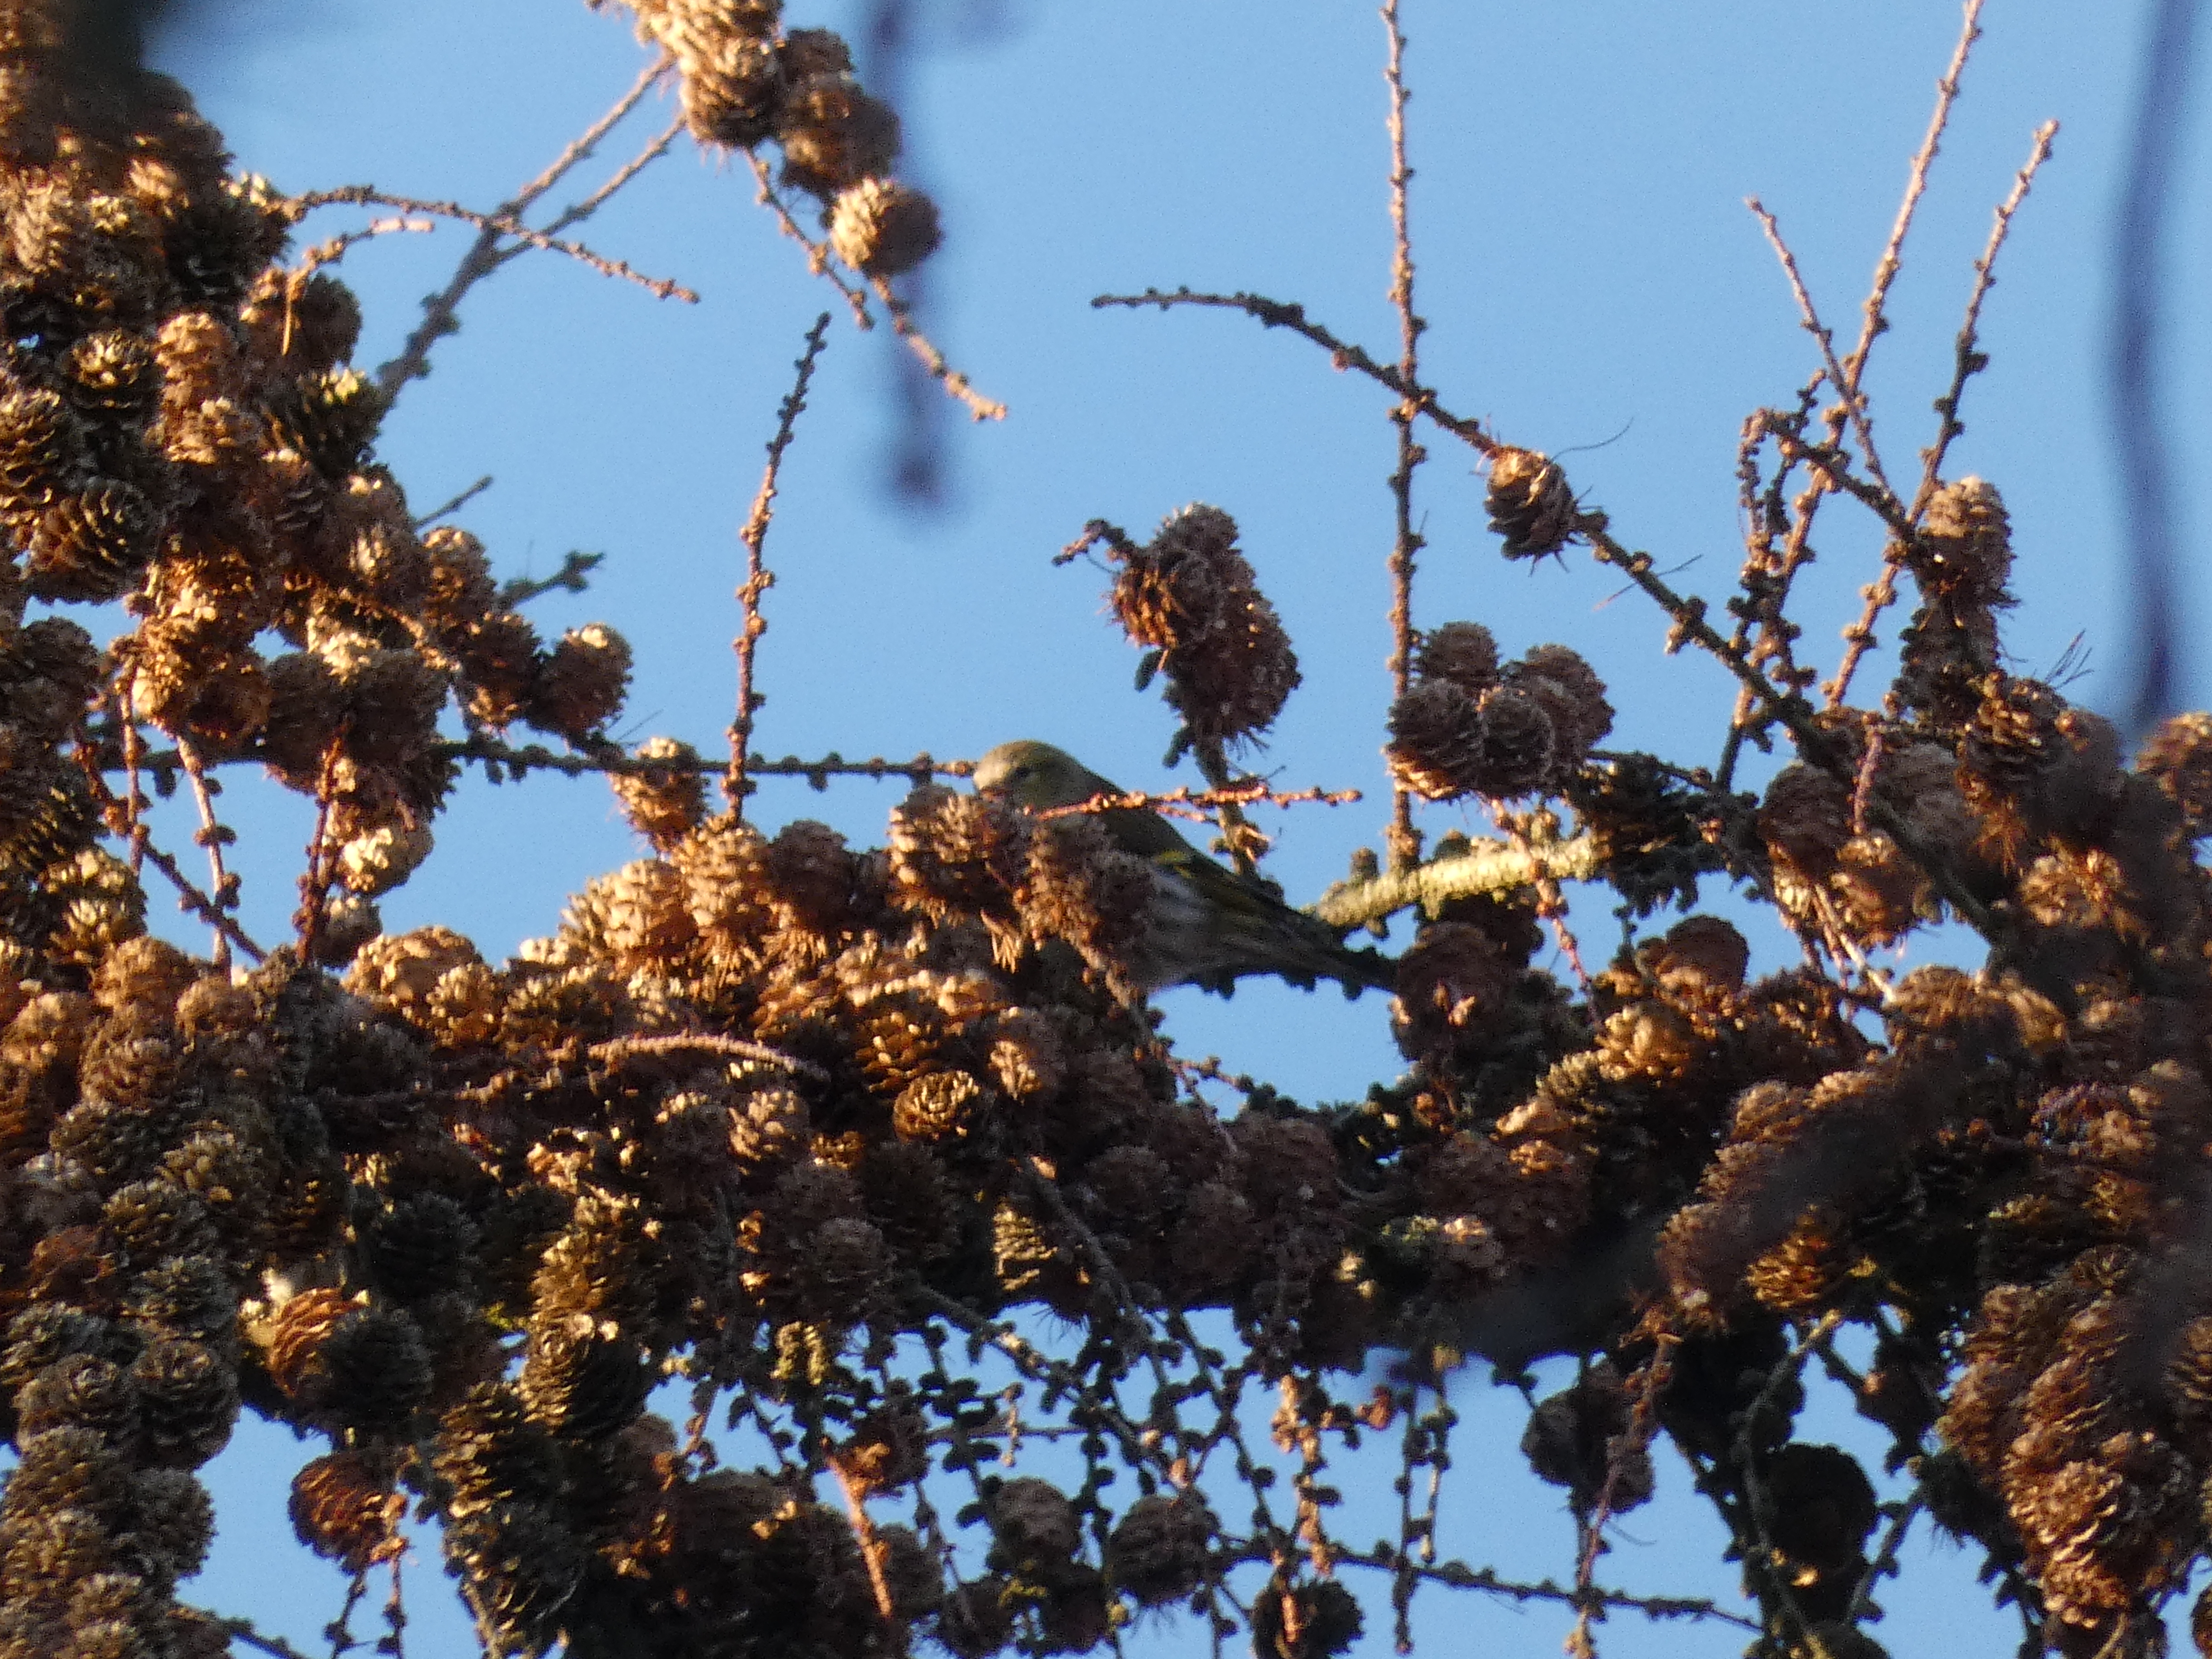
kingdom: Animalia
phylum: Chordata
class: Aves
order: Passeriformes
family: Fringillidae
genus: Spinus
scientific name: Spinus spinus
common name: Grønsisken
